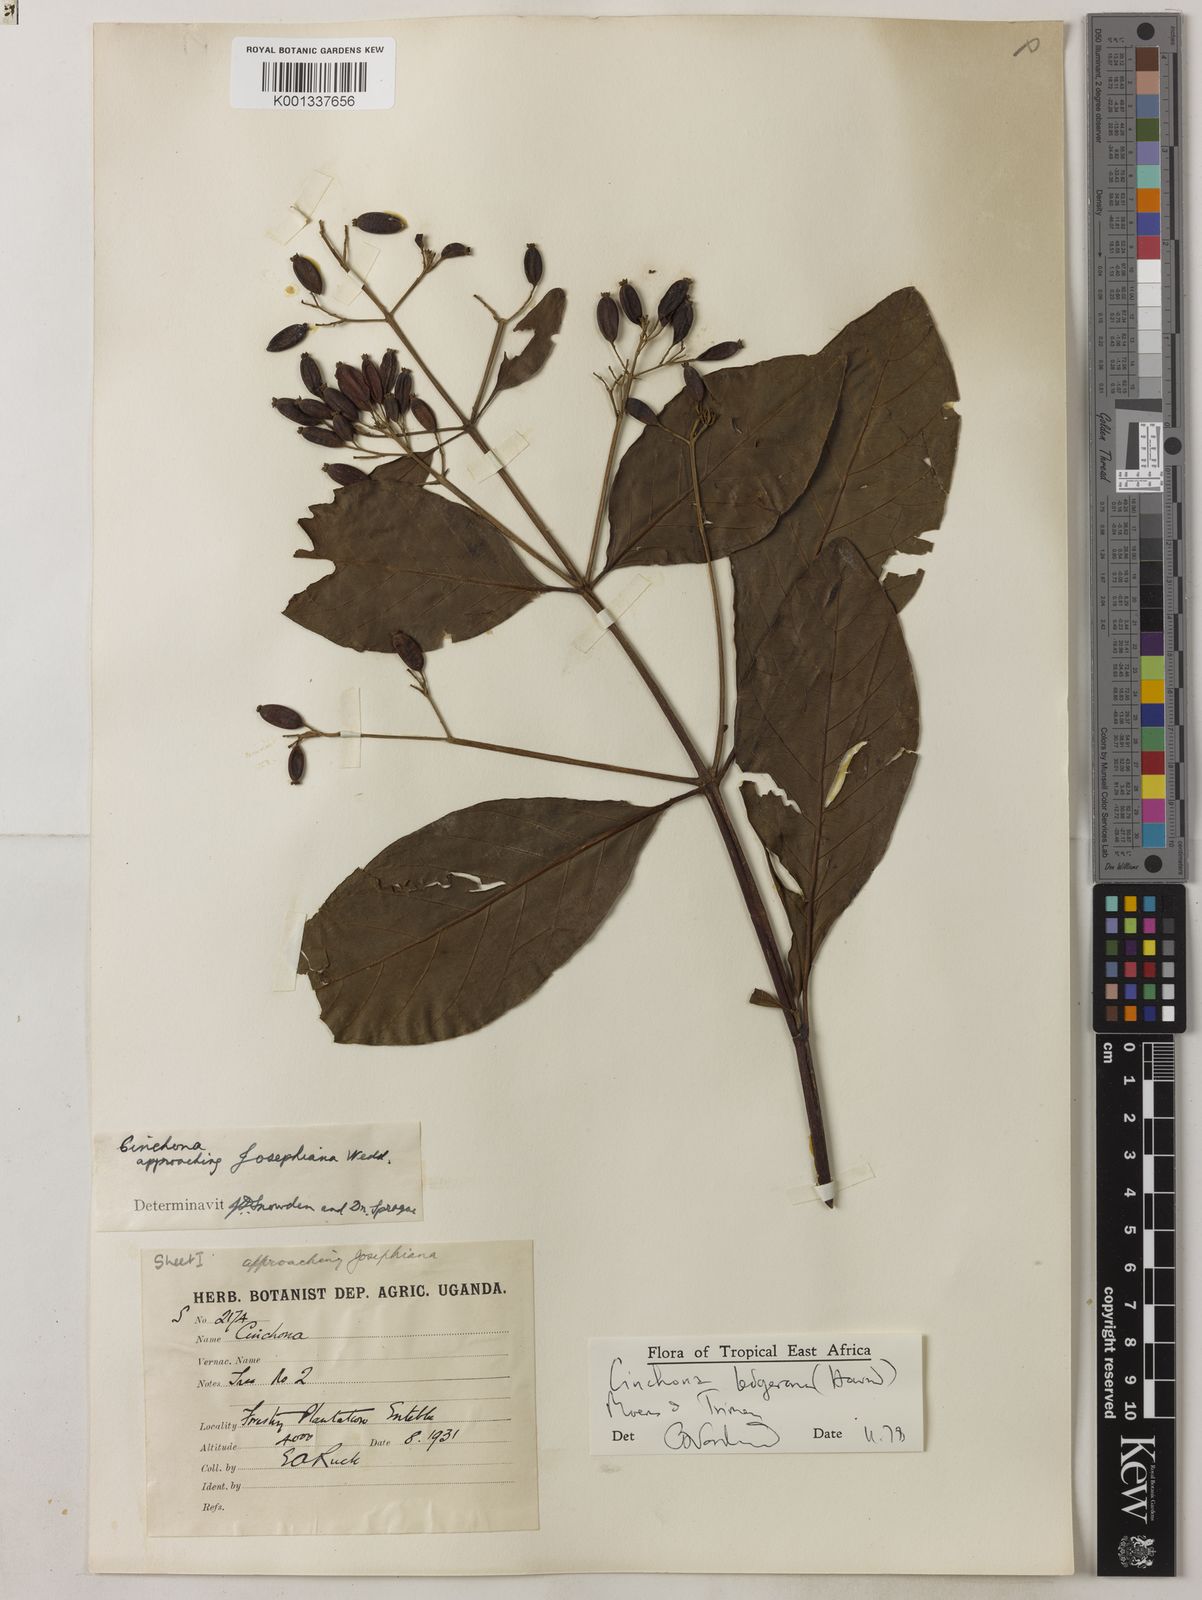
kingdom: Plantae
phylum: Tracheophyta
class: Magnoliopsida
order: Gentianales
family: Rubiaceae
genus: Cinchona
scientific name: Cinchona calisaya
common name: Ledgerbark
